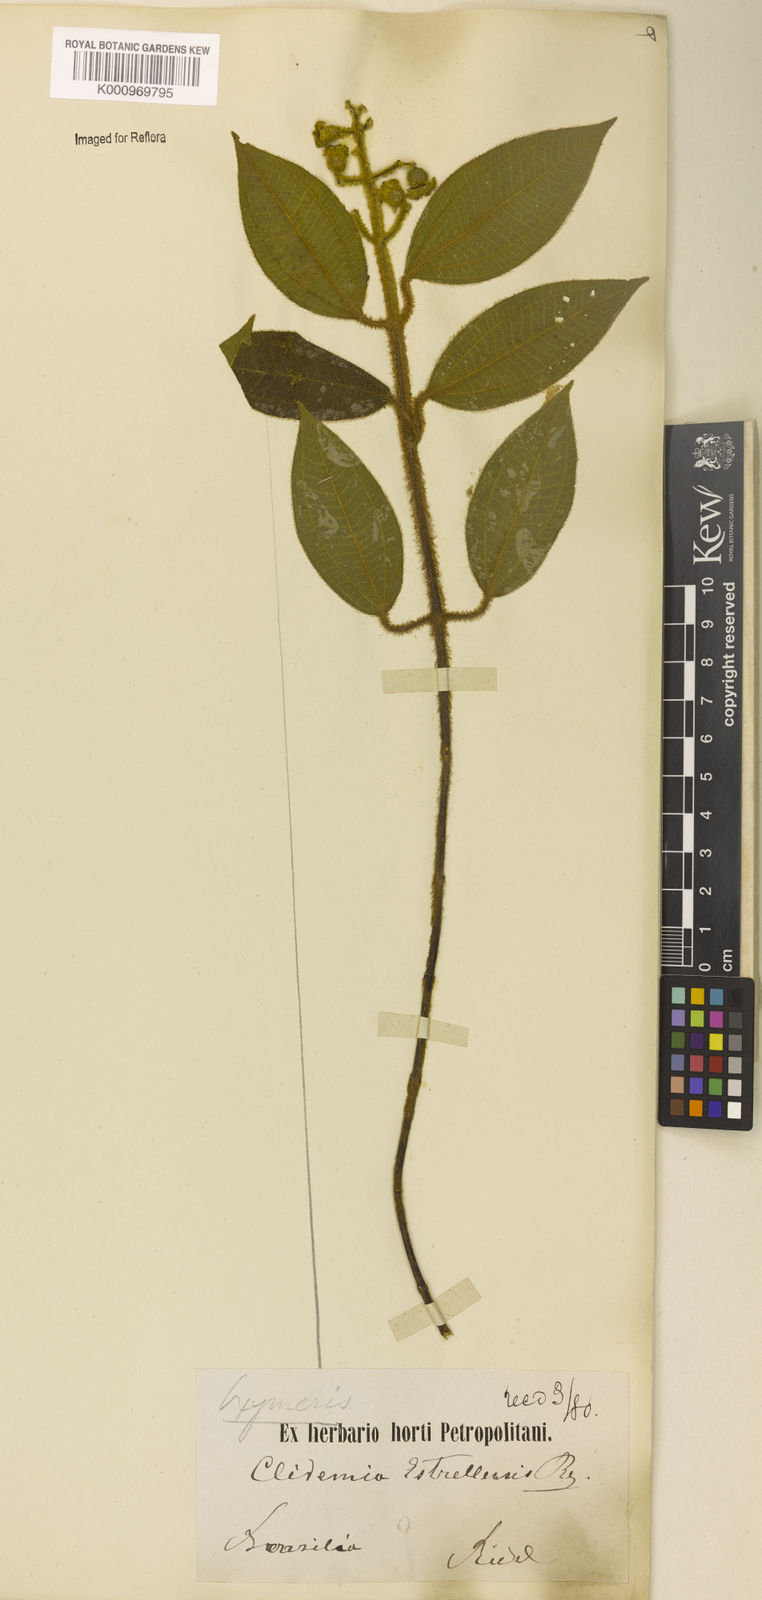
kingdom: Plantae
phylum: Tracheophyta
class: Magnoliopsida
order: Myrtales
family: Melastomataceae
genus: Miconia
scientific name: Miconia sublanata
